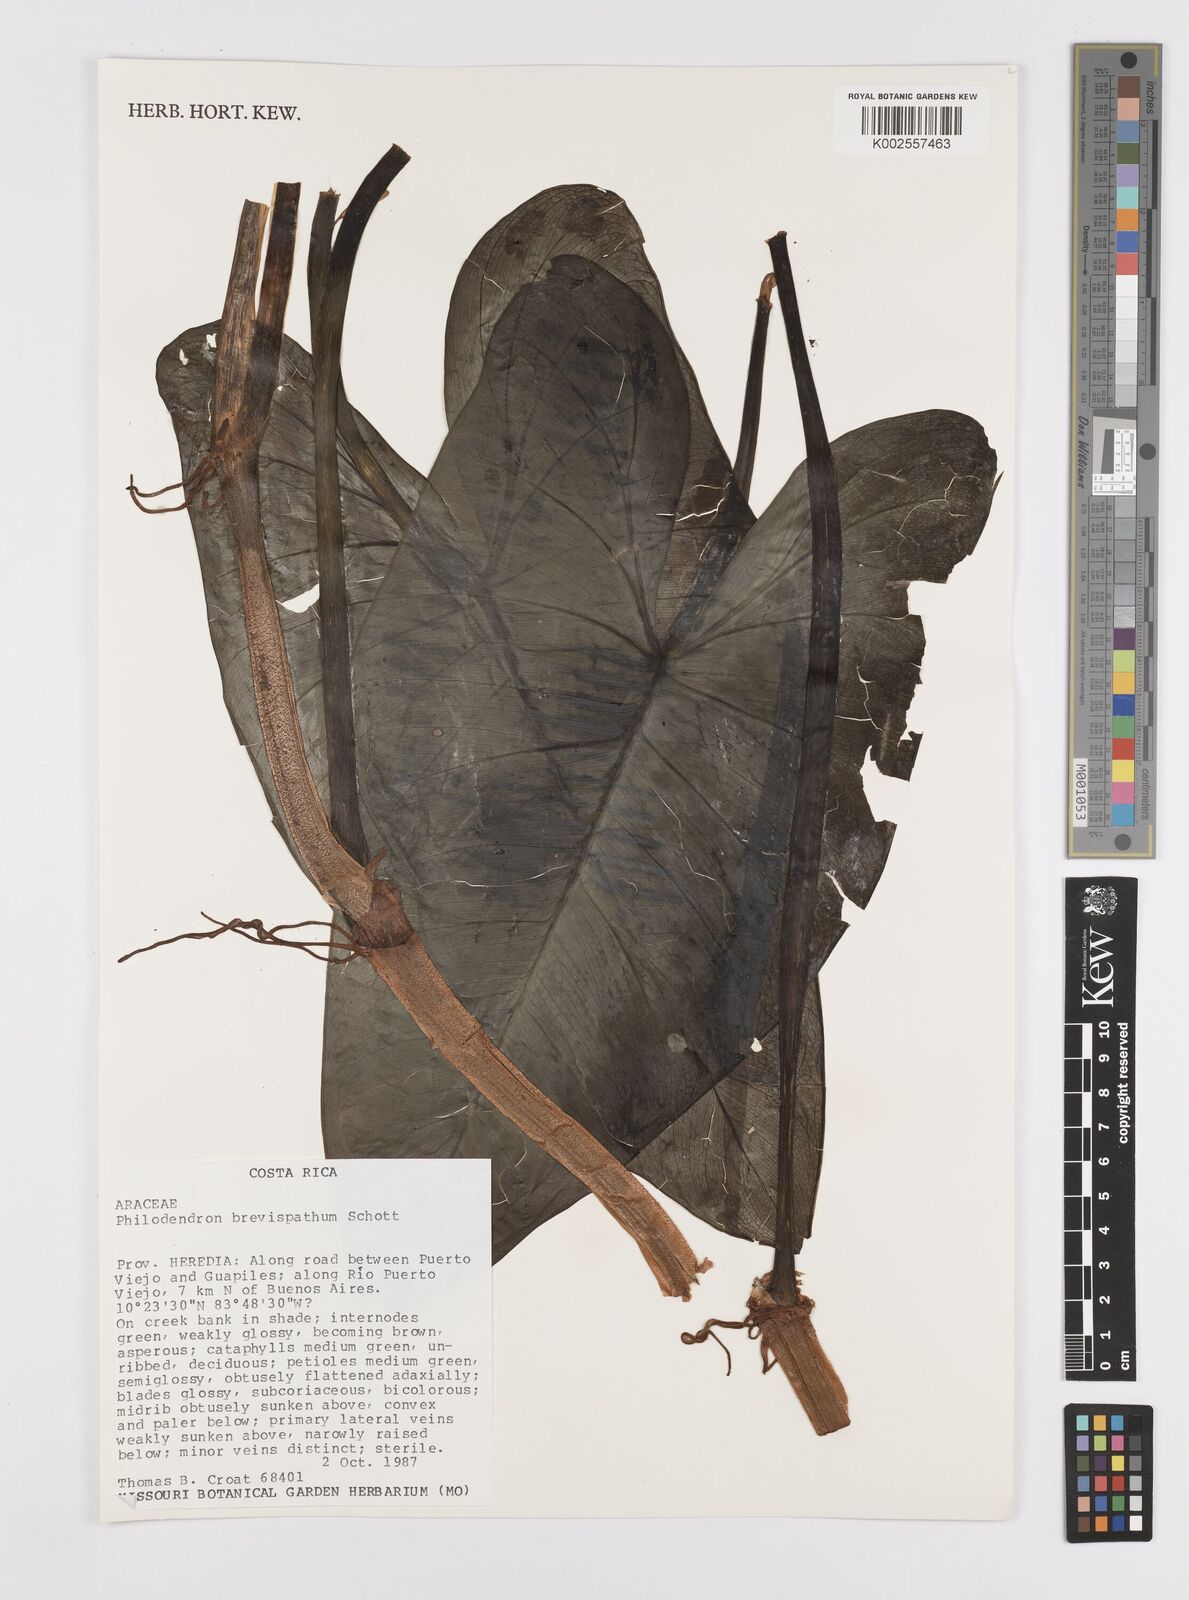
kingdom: Plantae
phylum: Tracheophyta
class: Liliopsida
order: Alismatales
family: Araceae
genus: Philodendron
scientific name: Philodendron brevispathum
